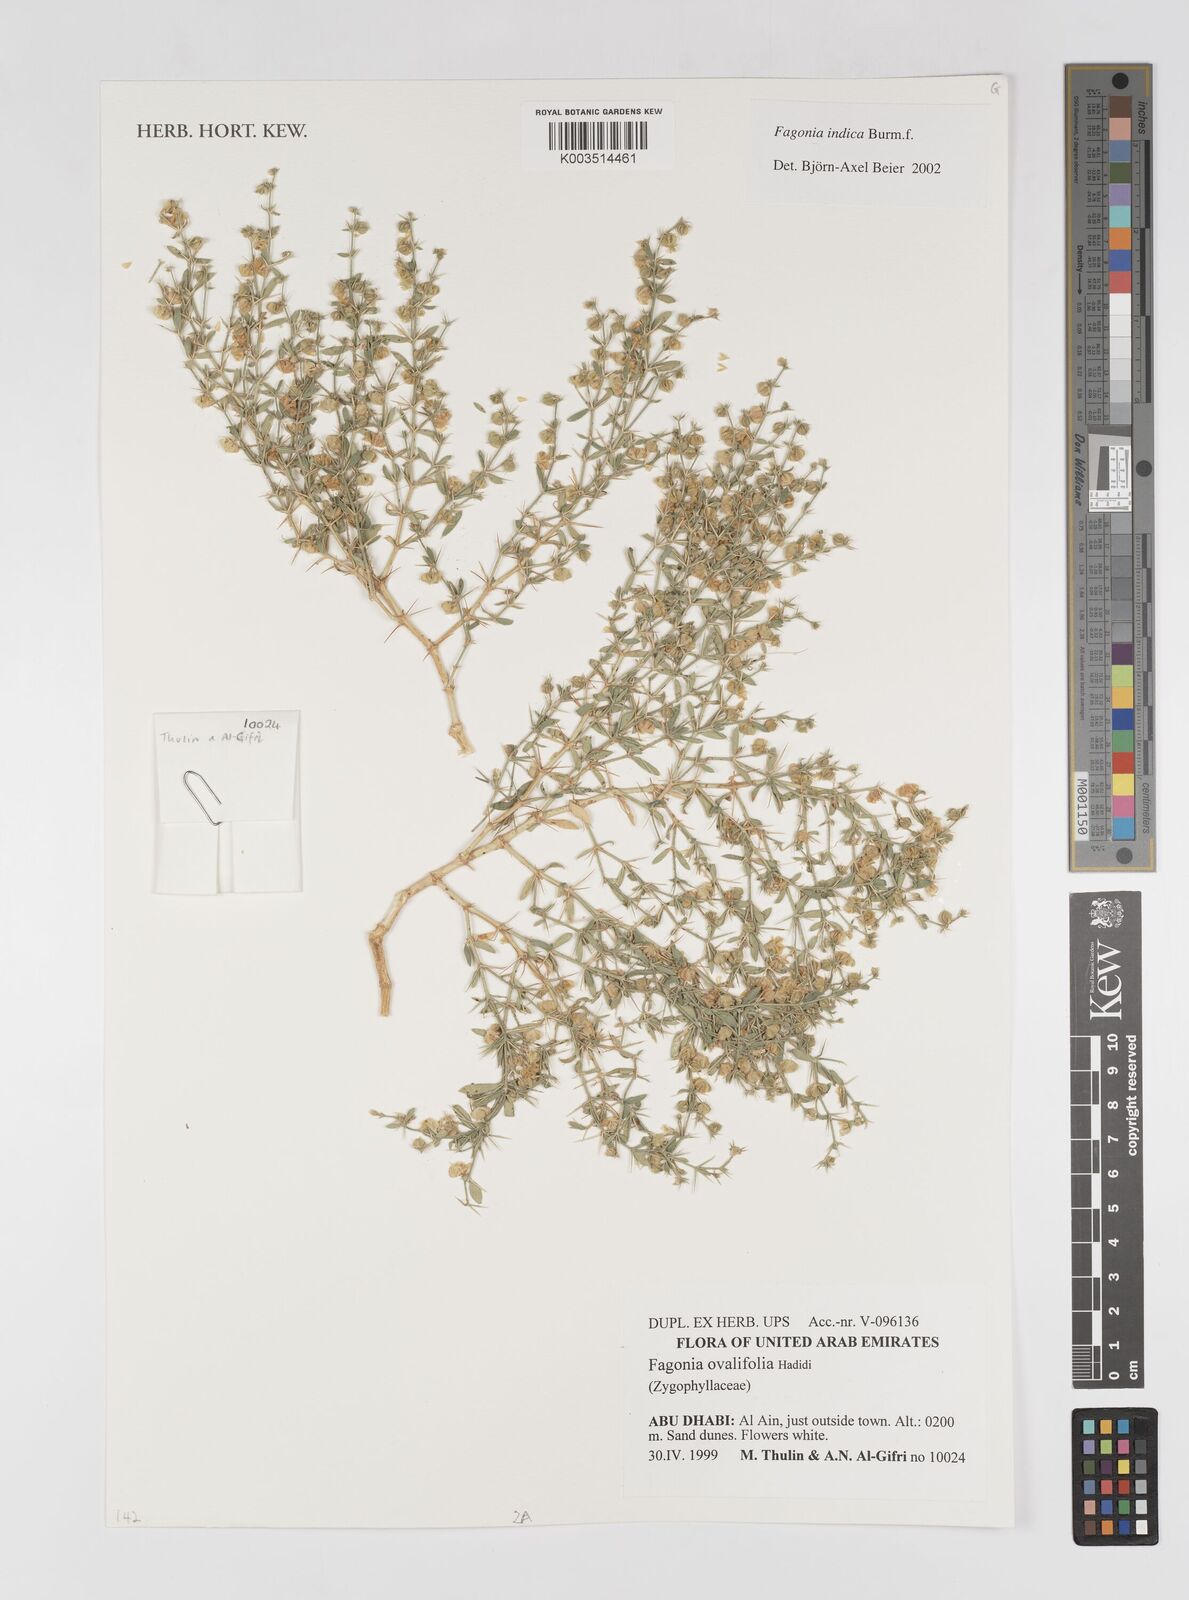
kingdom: Plantae
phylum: Tracheophyta
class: Magnoliopsida
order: Zygophyllales
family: Zygophyllaceae
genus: Fagonia
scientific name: Fagonia indica
